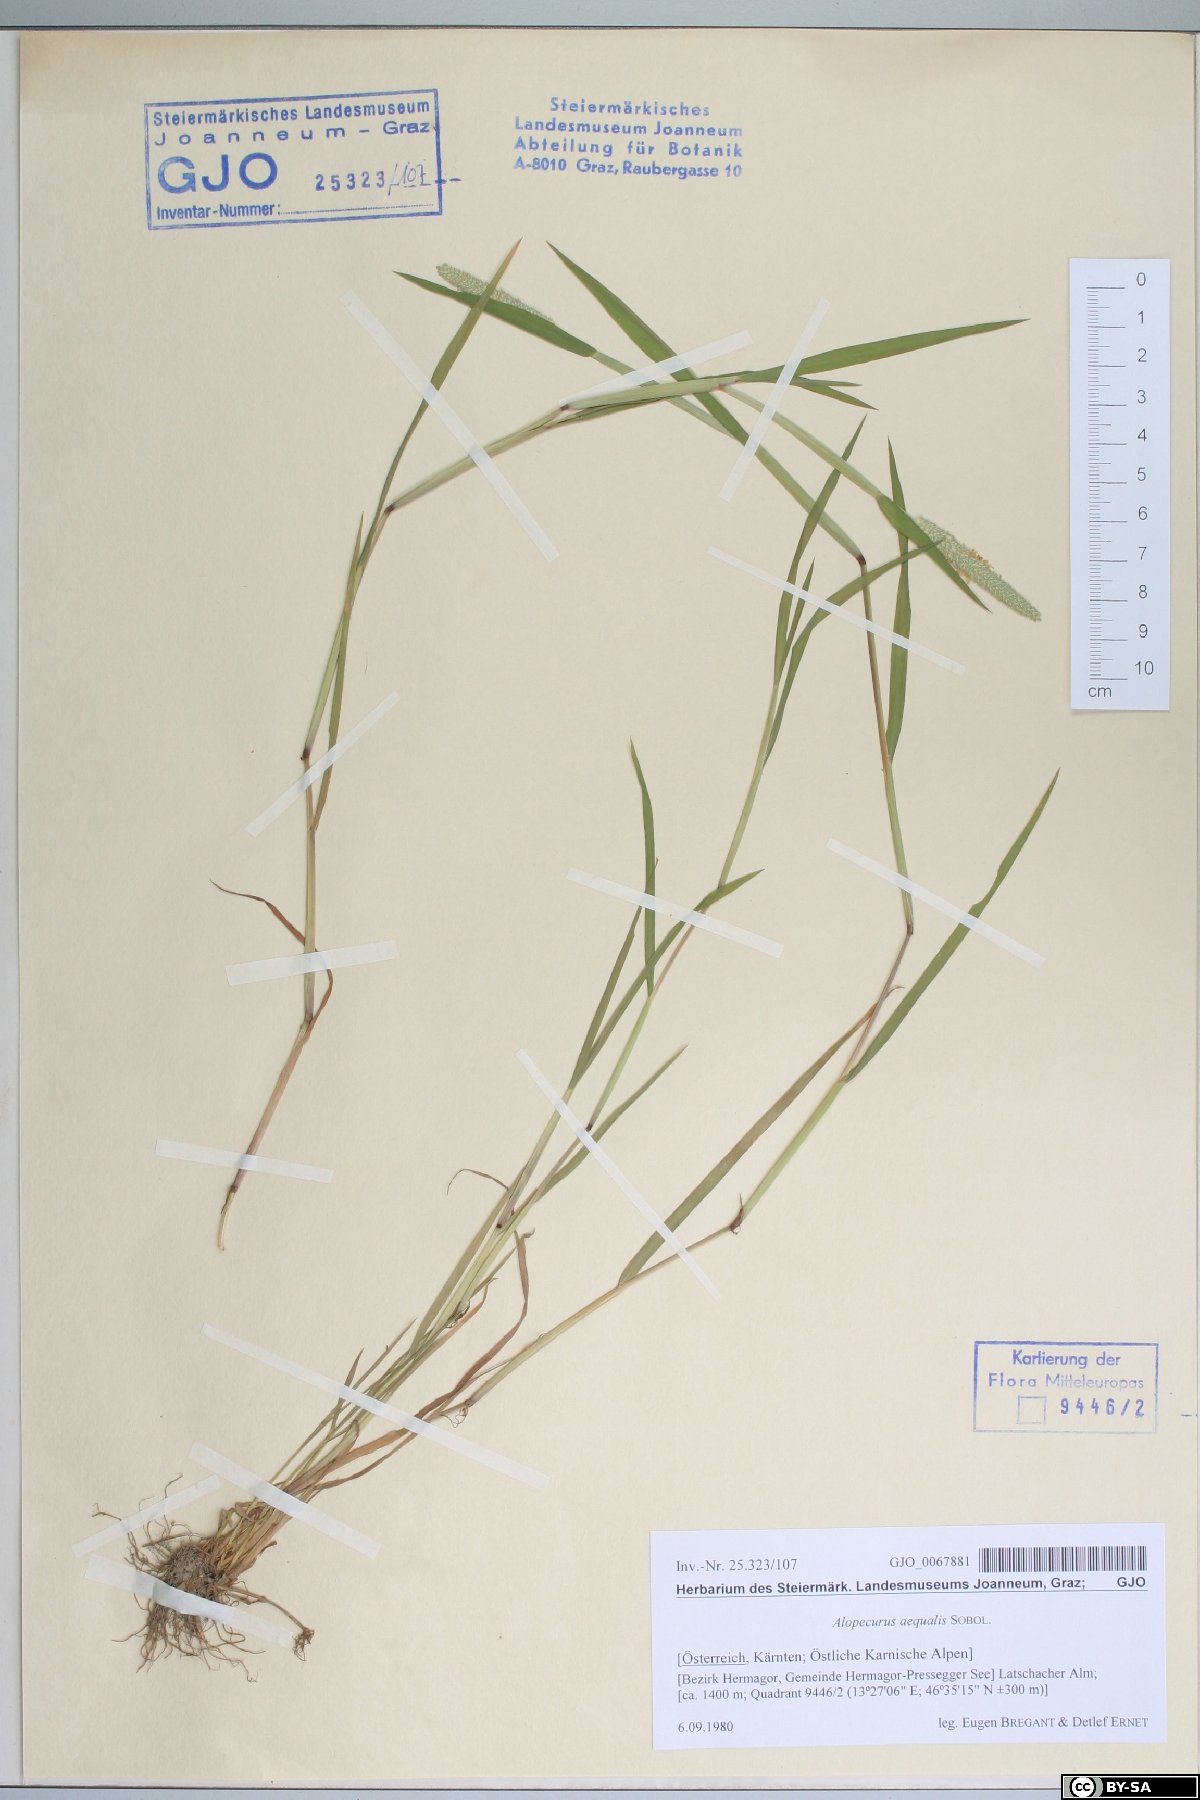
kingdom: Plantae
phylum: Tracheophyta
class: Liliopsida
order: Poales
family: Poaceae
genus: Alopecurus
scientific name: Alopecurus aequalis
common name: Orange foxtail
